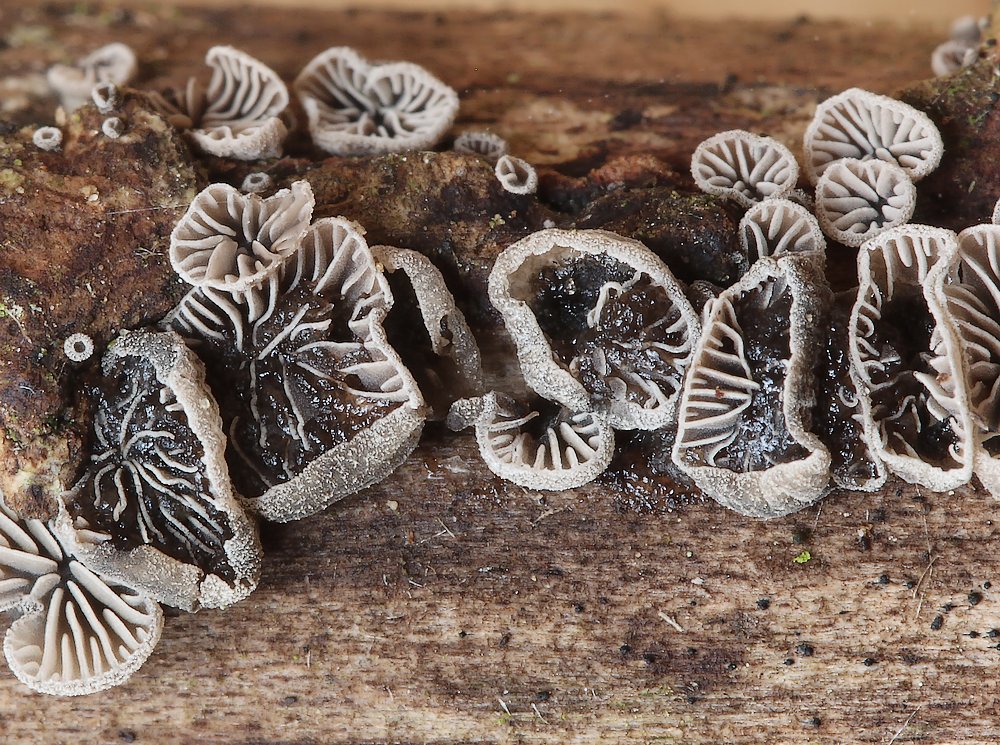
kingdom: Fungi
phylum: Basidiomycota
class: Agaricomycetes
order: Agaricales
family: Pleurotaceae
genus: Resupinatus
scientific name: Resupinatus trichotis
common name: mørkfiltet barkhat
